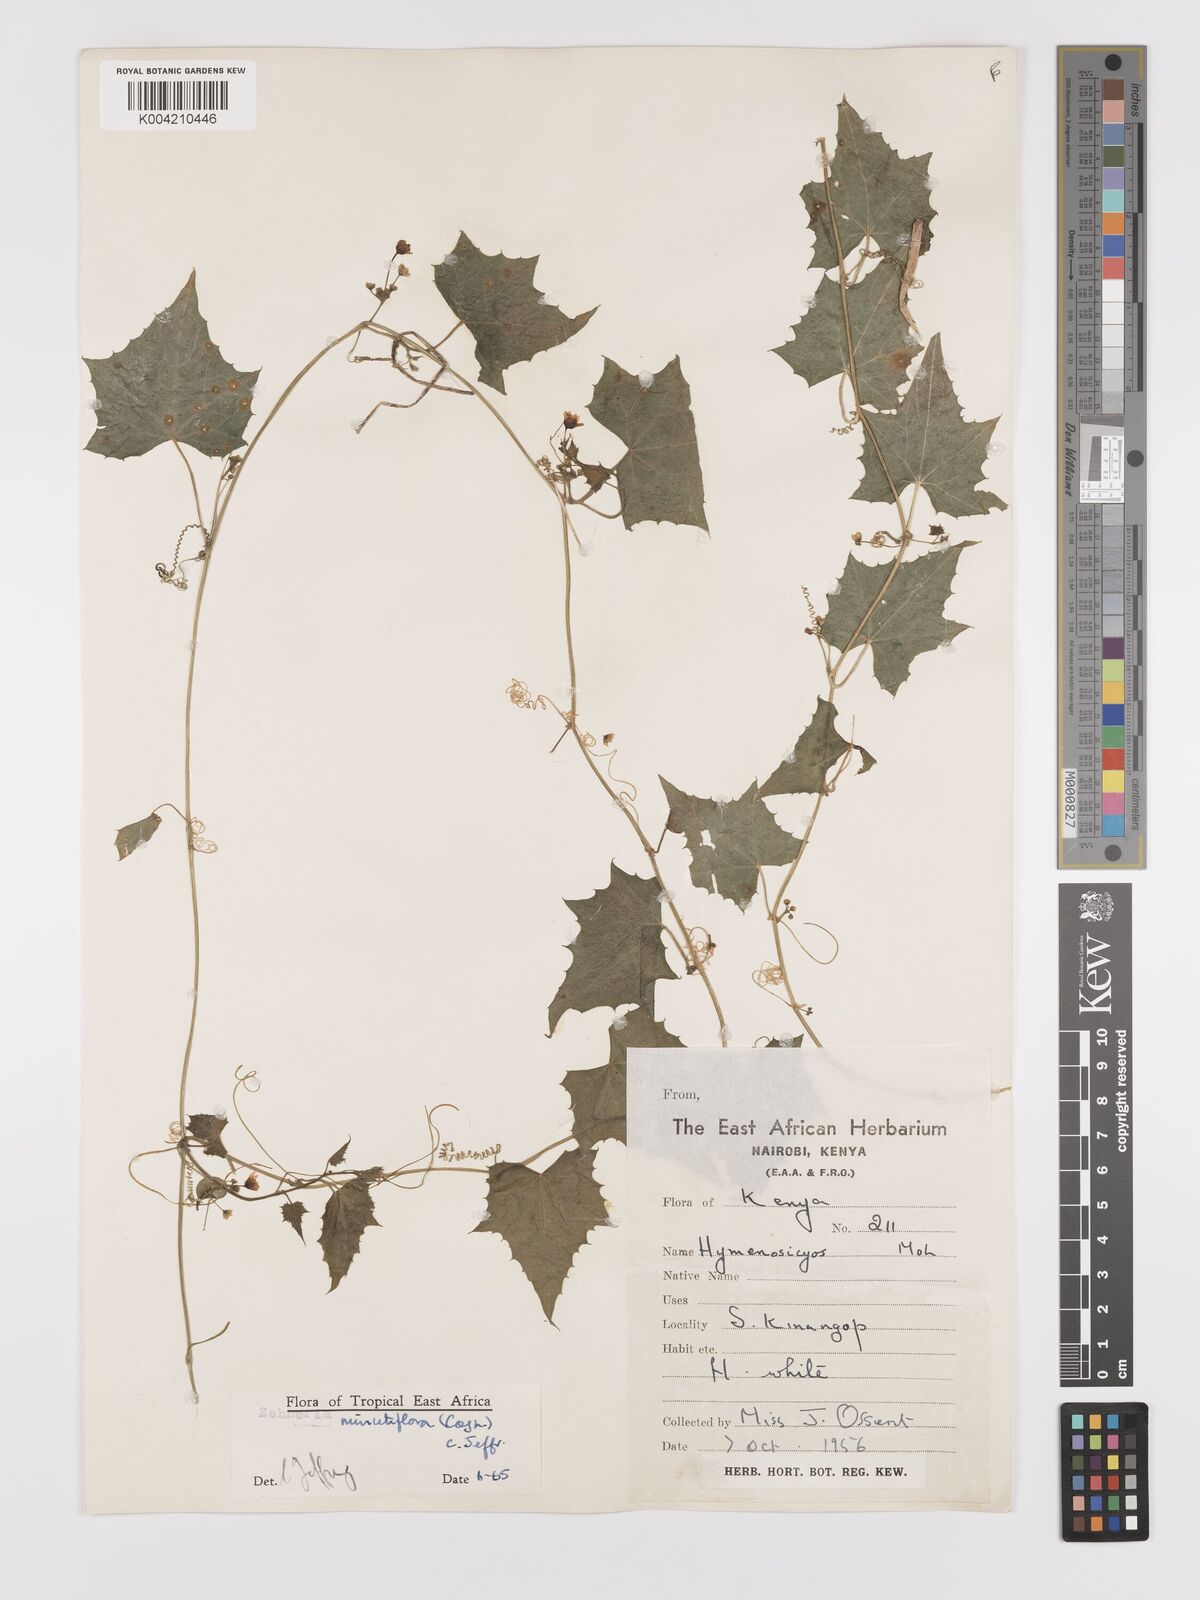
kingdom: Plantae
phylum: Tracheophyta
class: Magnoliopsida
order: Cucurbitales
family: Cucurbitaceae
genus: Zehneria
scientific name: Zehneria minutiflora
